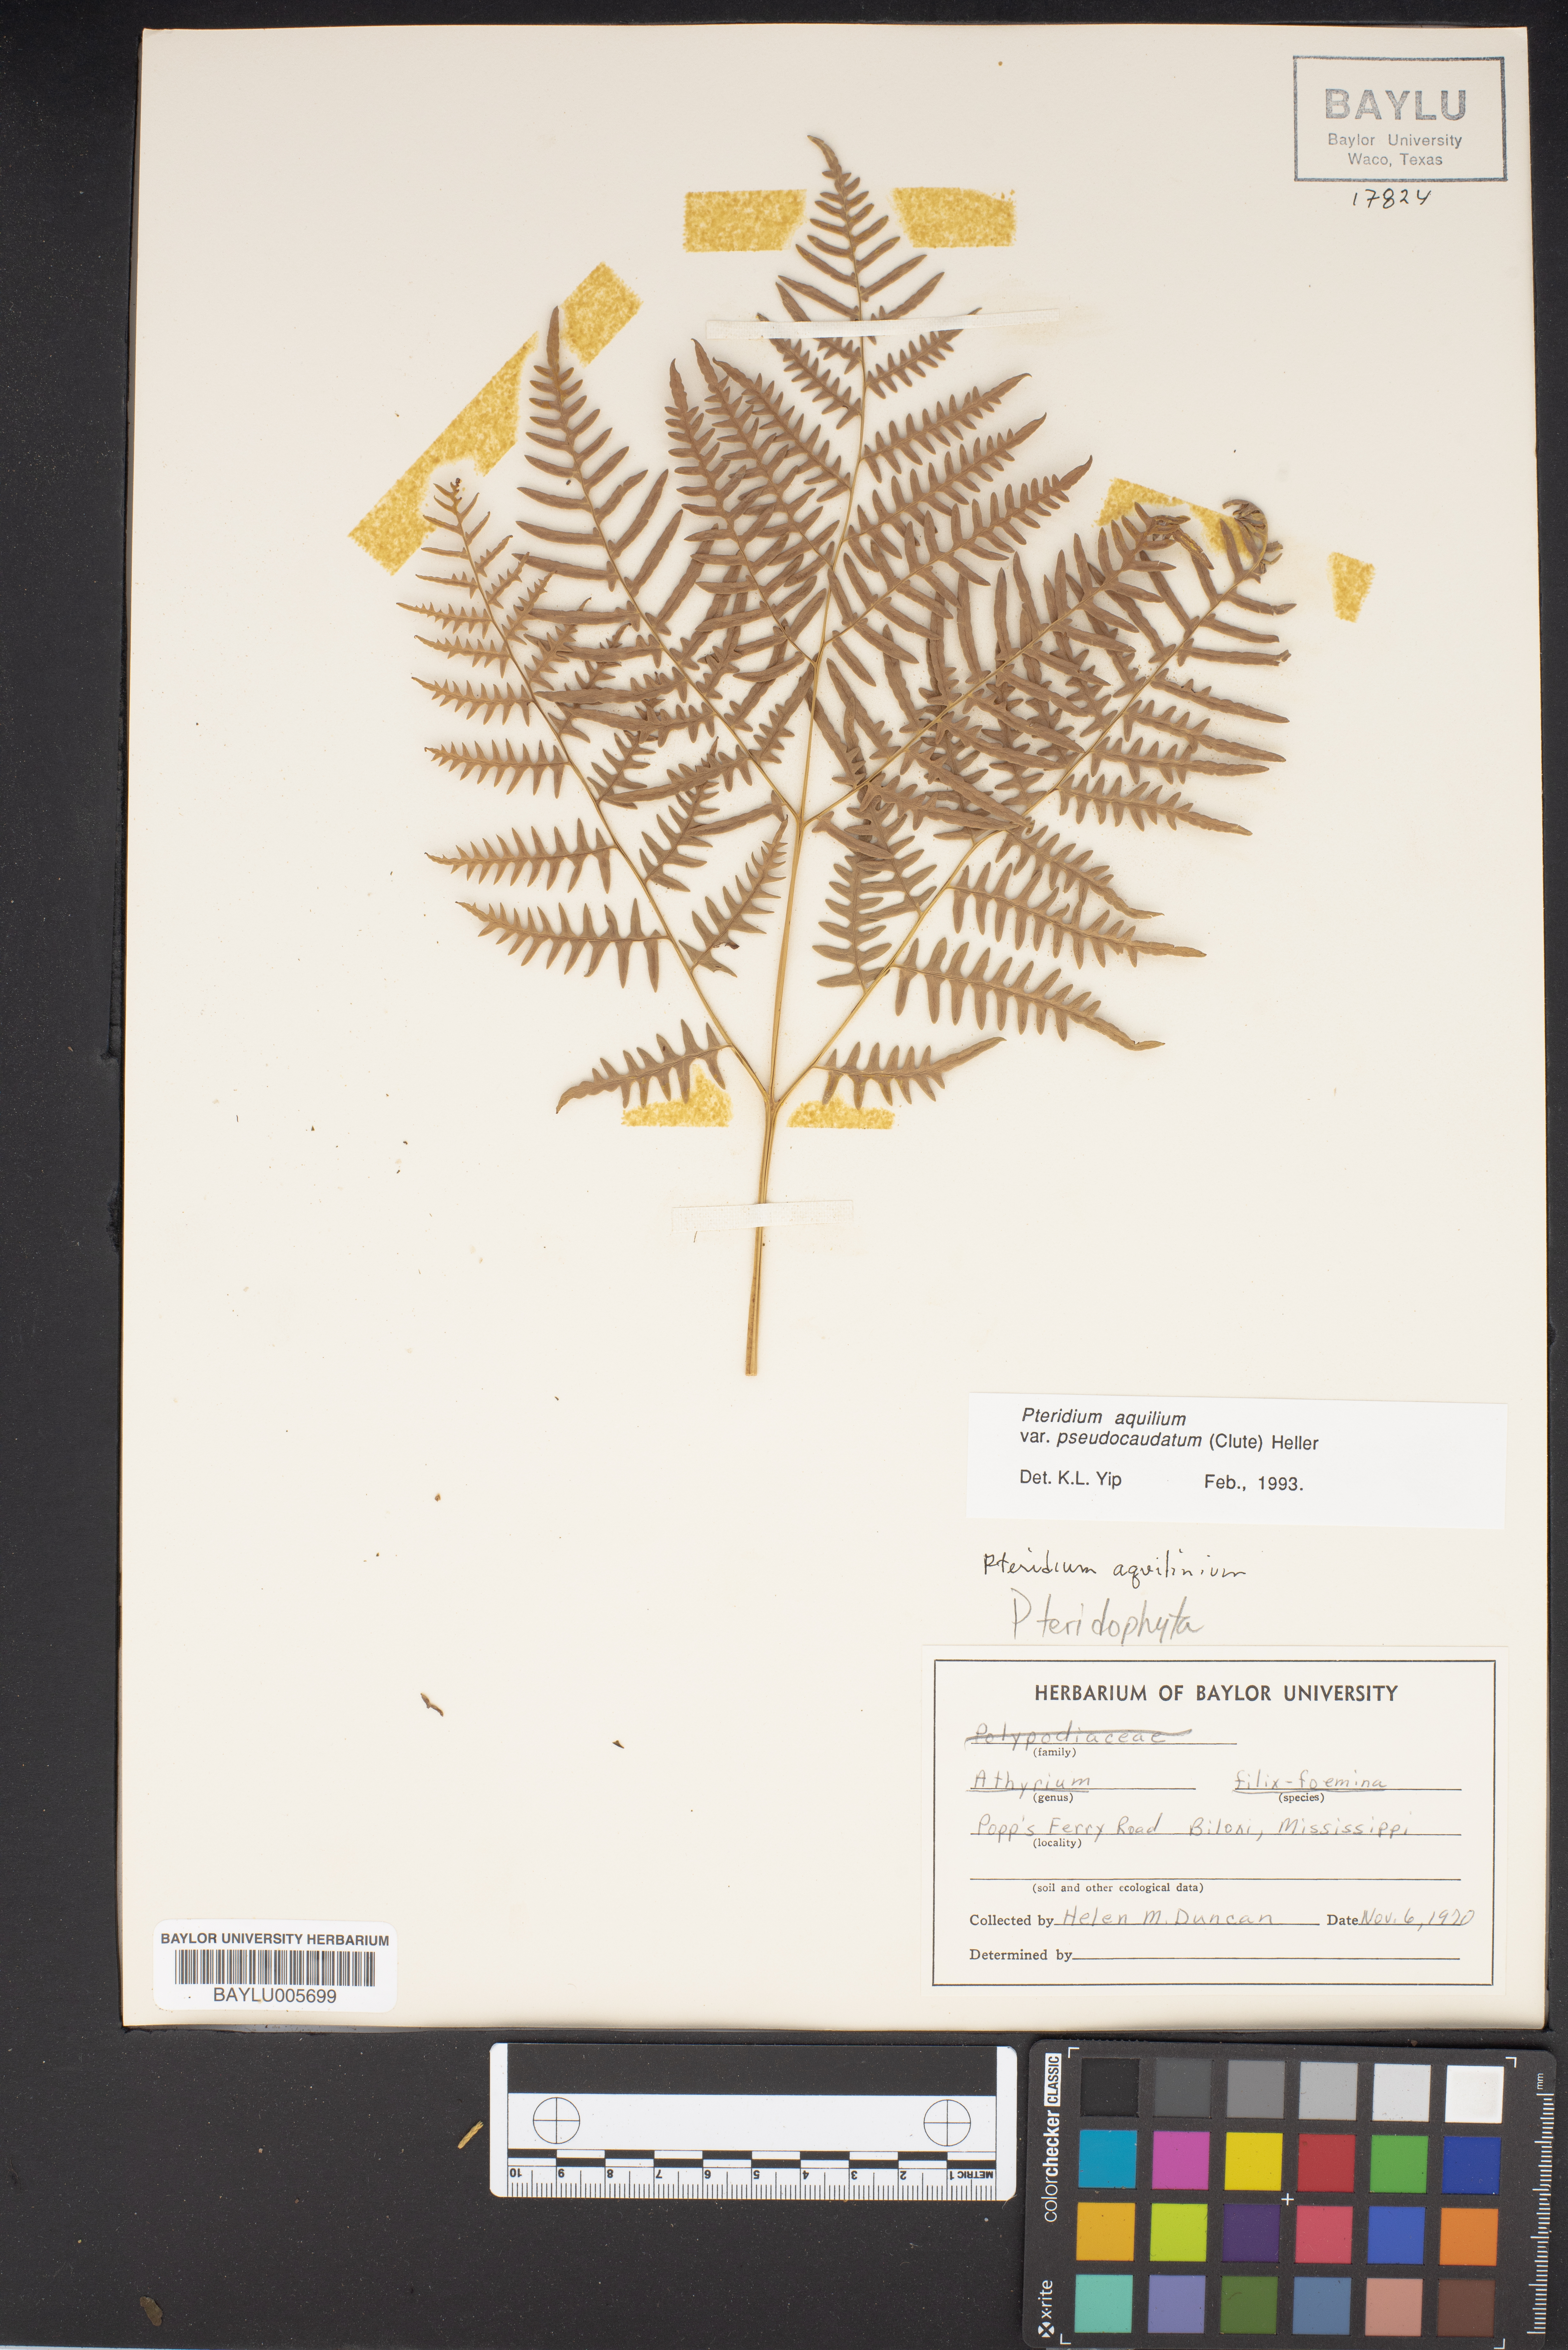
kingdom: Plantae
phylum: Tracheophyta
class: Polypodiopsida
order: Polypodiales
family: Dennstaedtiaceae
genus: Pteridium
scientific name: Pteridium aquilinum
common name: Bracken
